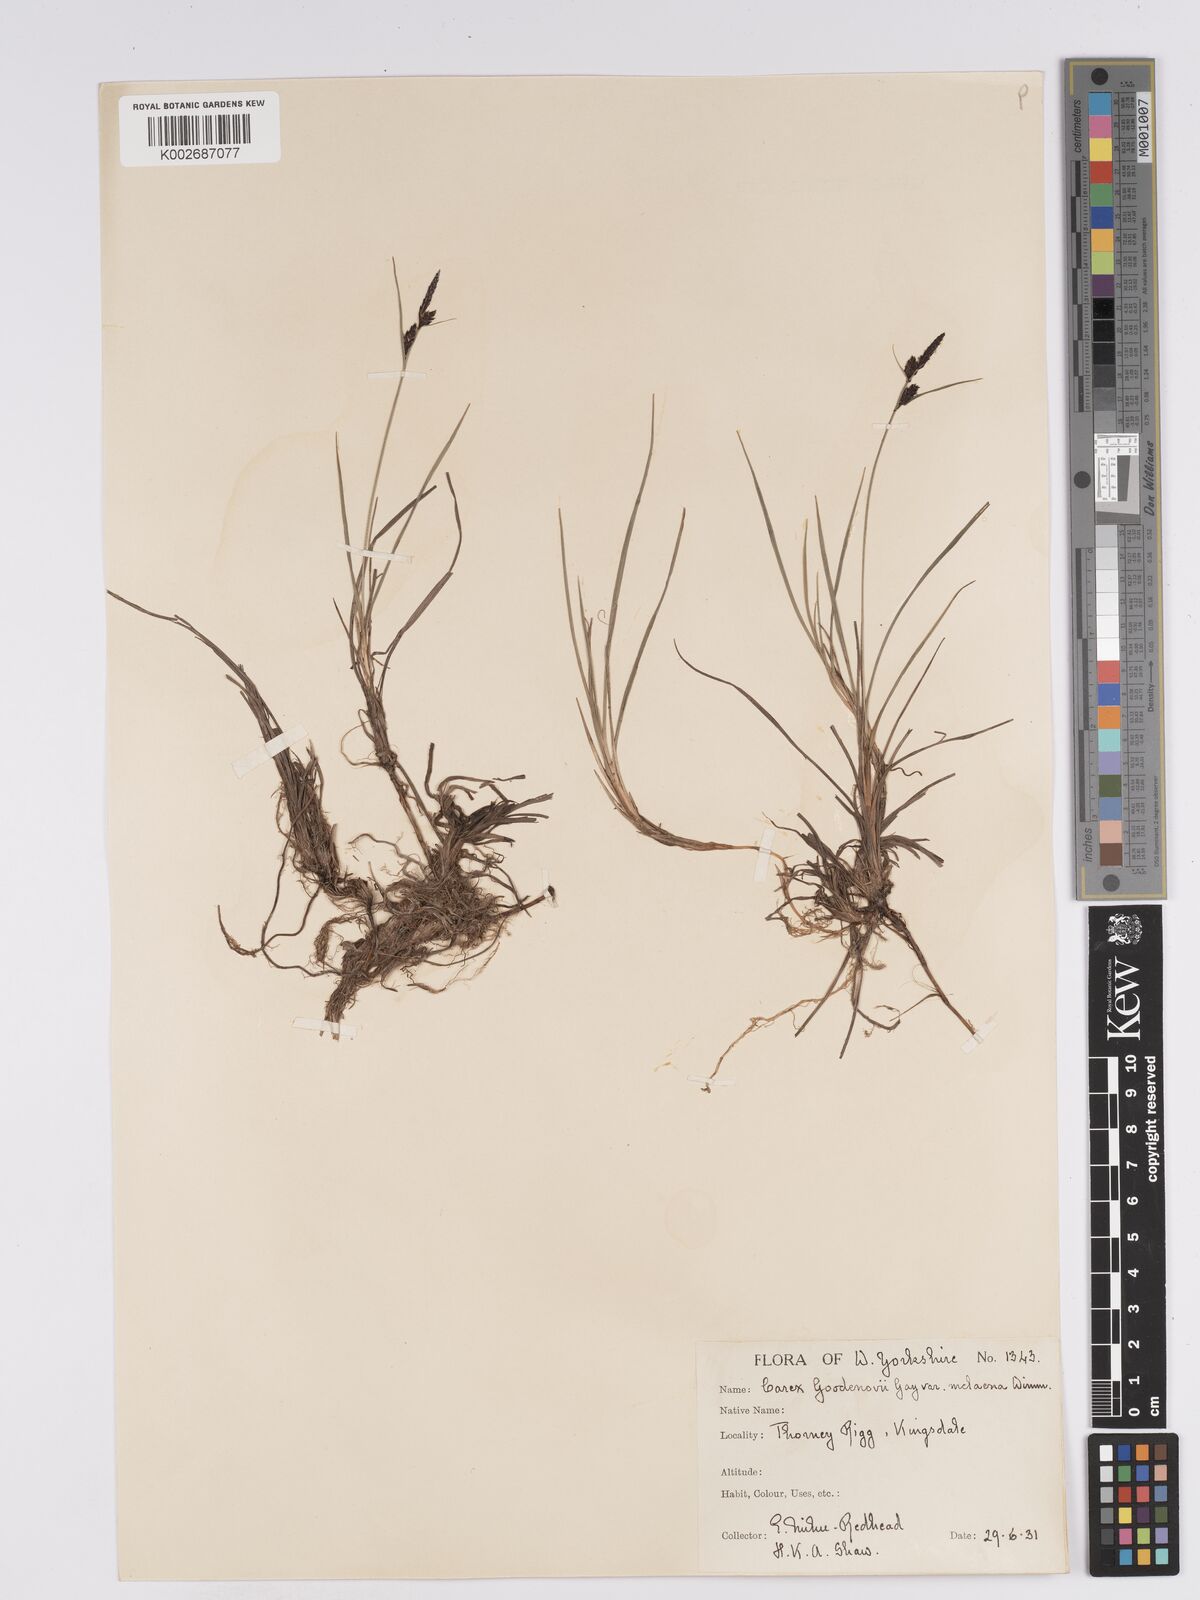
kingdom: Plantae
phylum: Tracheophyta
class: Liliopsida
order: Poales
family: Cyperaceae
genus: Carex
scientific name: Carex nigra
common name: Common sedge
